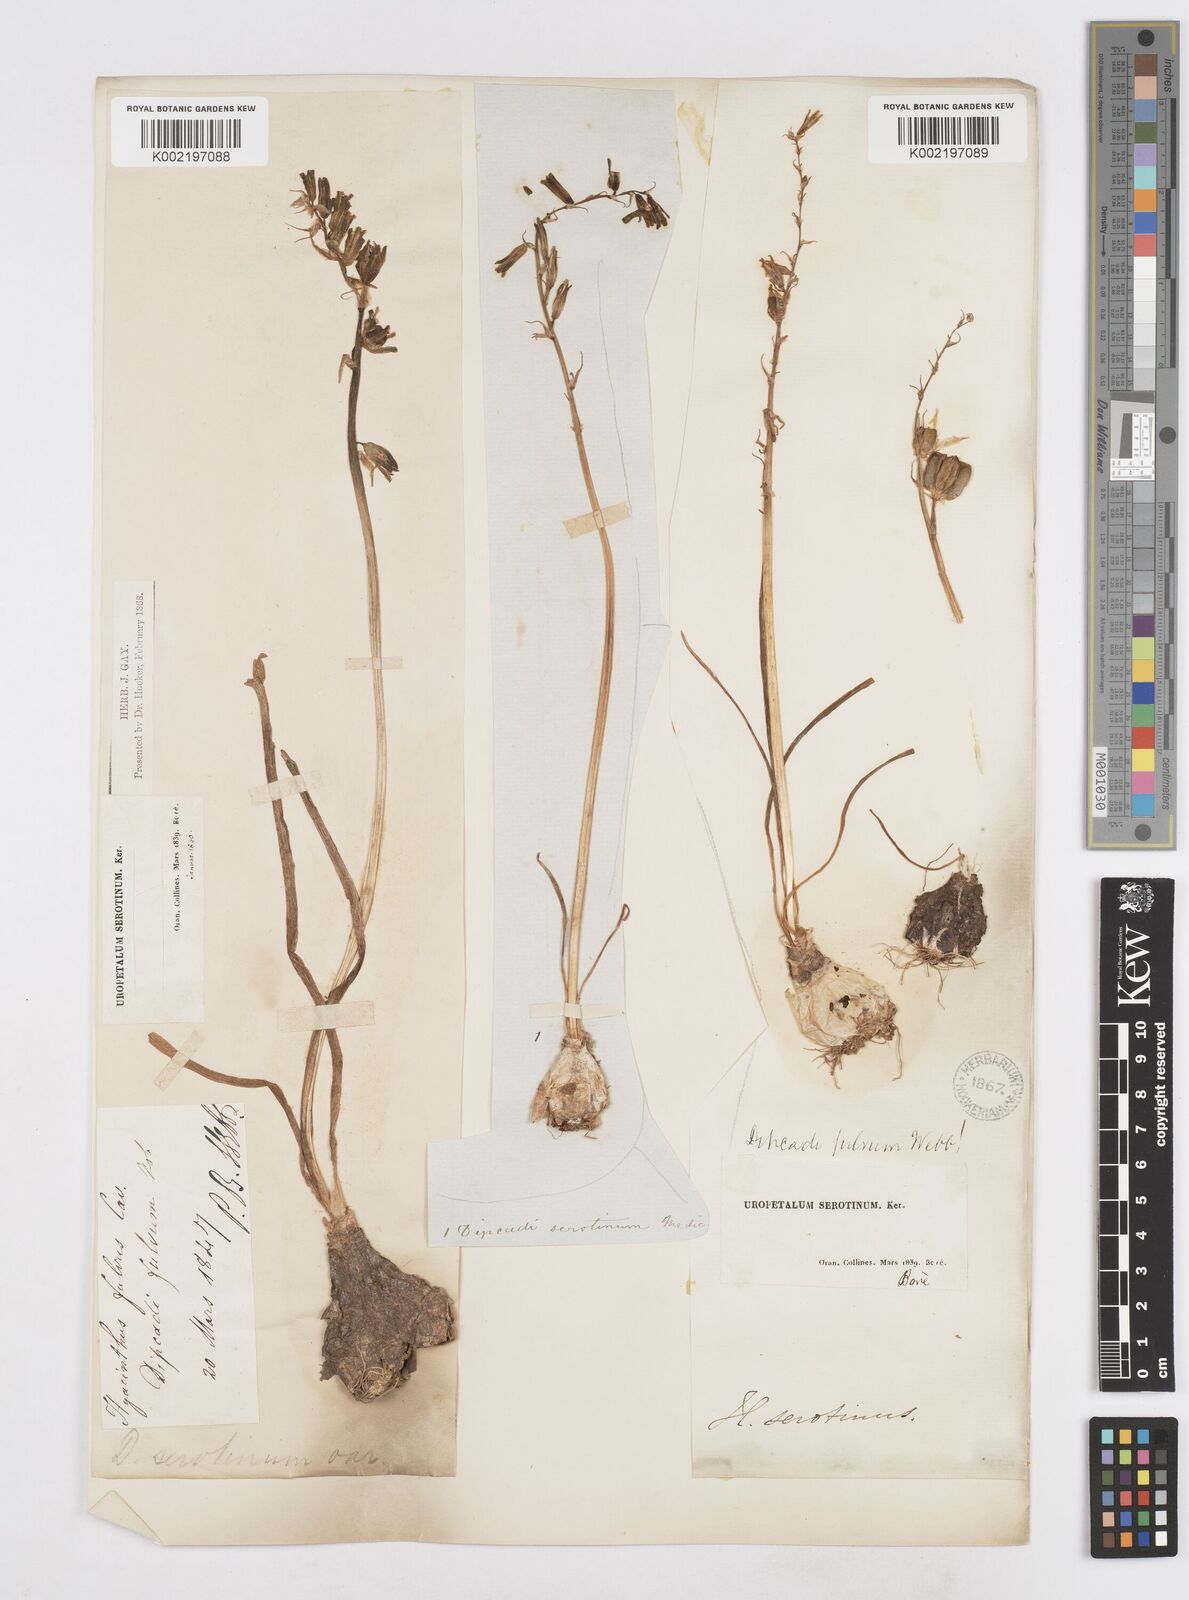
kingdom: Plantae
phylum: Tracheophyta
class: Liliopsida
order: Asparagales
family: Asparagaceae
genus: Dipcadi
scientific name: Dipcadi serotinum
